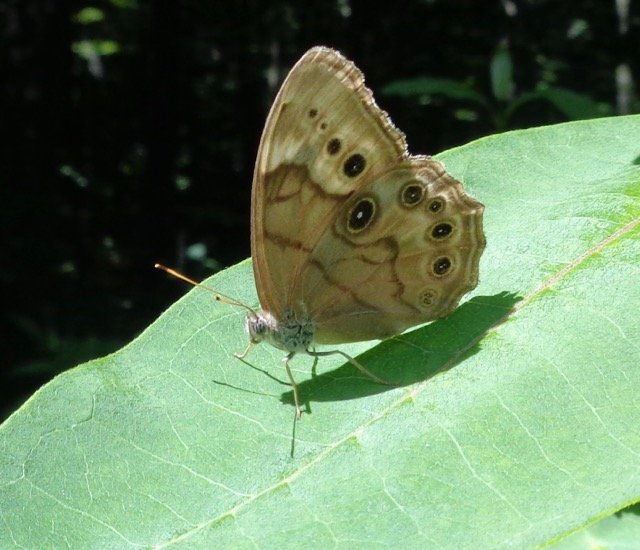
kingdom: Animalia
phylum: Arthropoda
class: Insecta
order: Lepidoptera
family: Nymphalidae
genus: Lethe
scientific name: Lethe anthedon
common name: Northern Pearly-Eye
